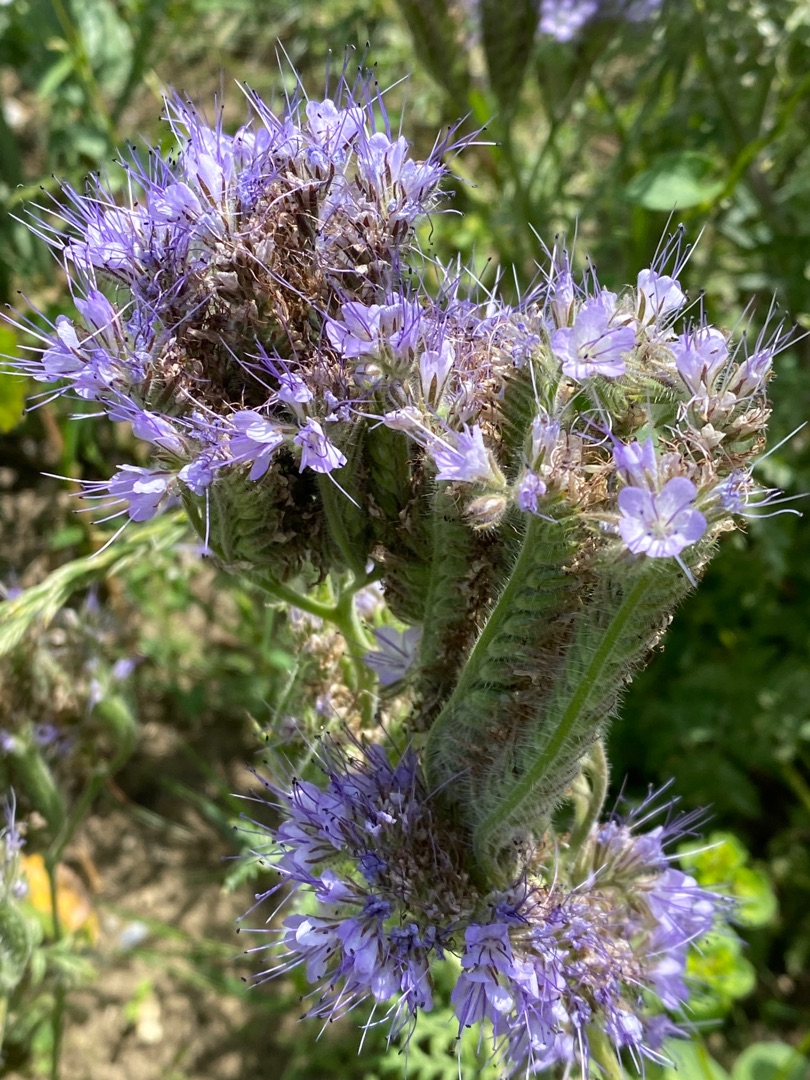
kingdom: Plantae
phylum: Tracheophyta
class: Magnoliopsida
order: Boraginales
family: Hydrophyllaceae
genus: Phacelia
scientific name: Phacelia tanacetifolia
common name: Honningurt
